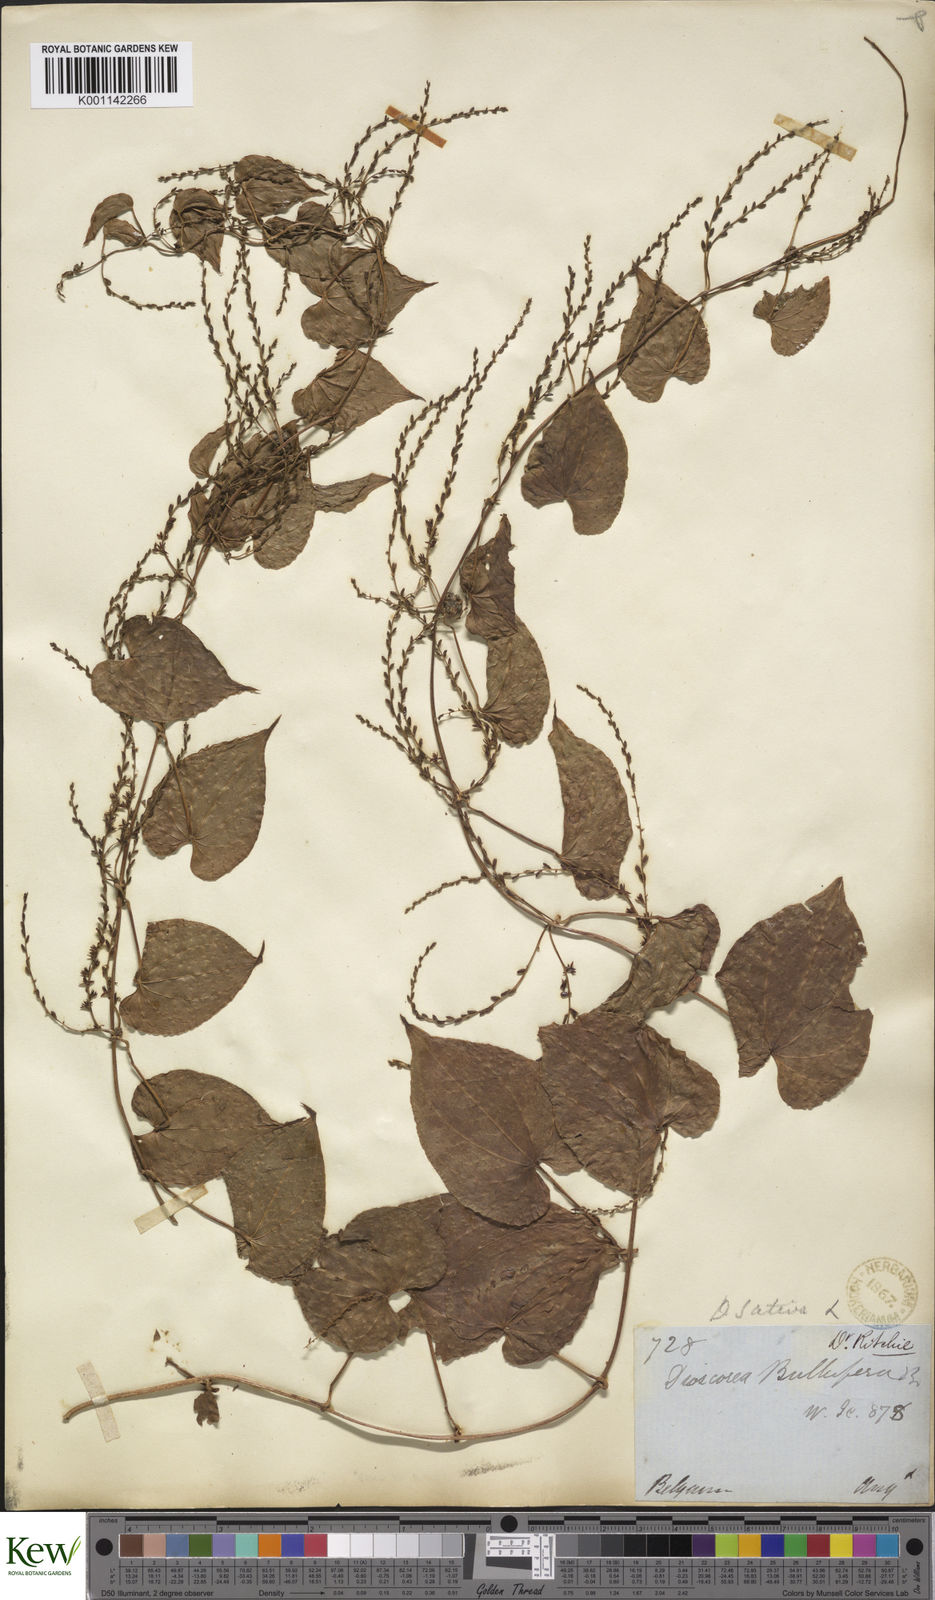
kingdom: Plantae
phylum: Tracheophyta
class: Liliopsida
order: Dioscoreales
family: Dioscoreaceae
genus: Dioscorea
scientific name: Dioscorea bulbifera
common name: Air yam
